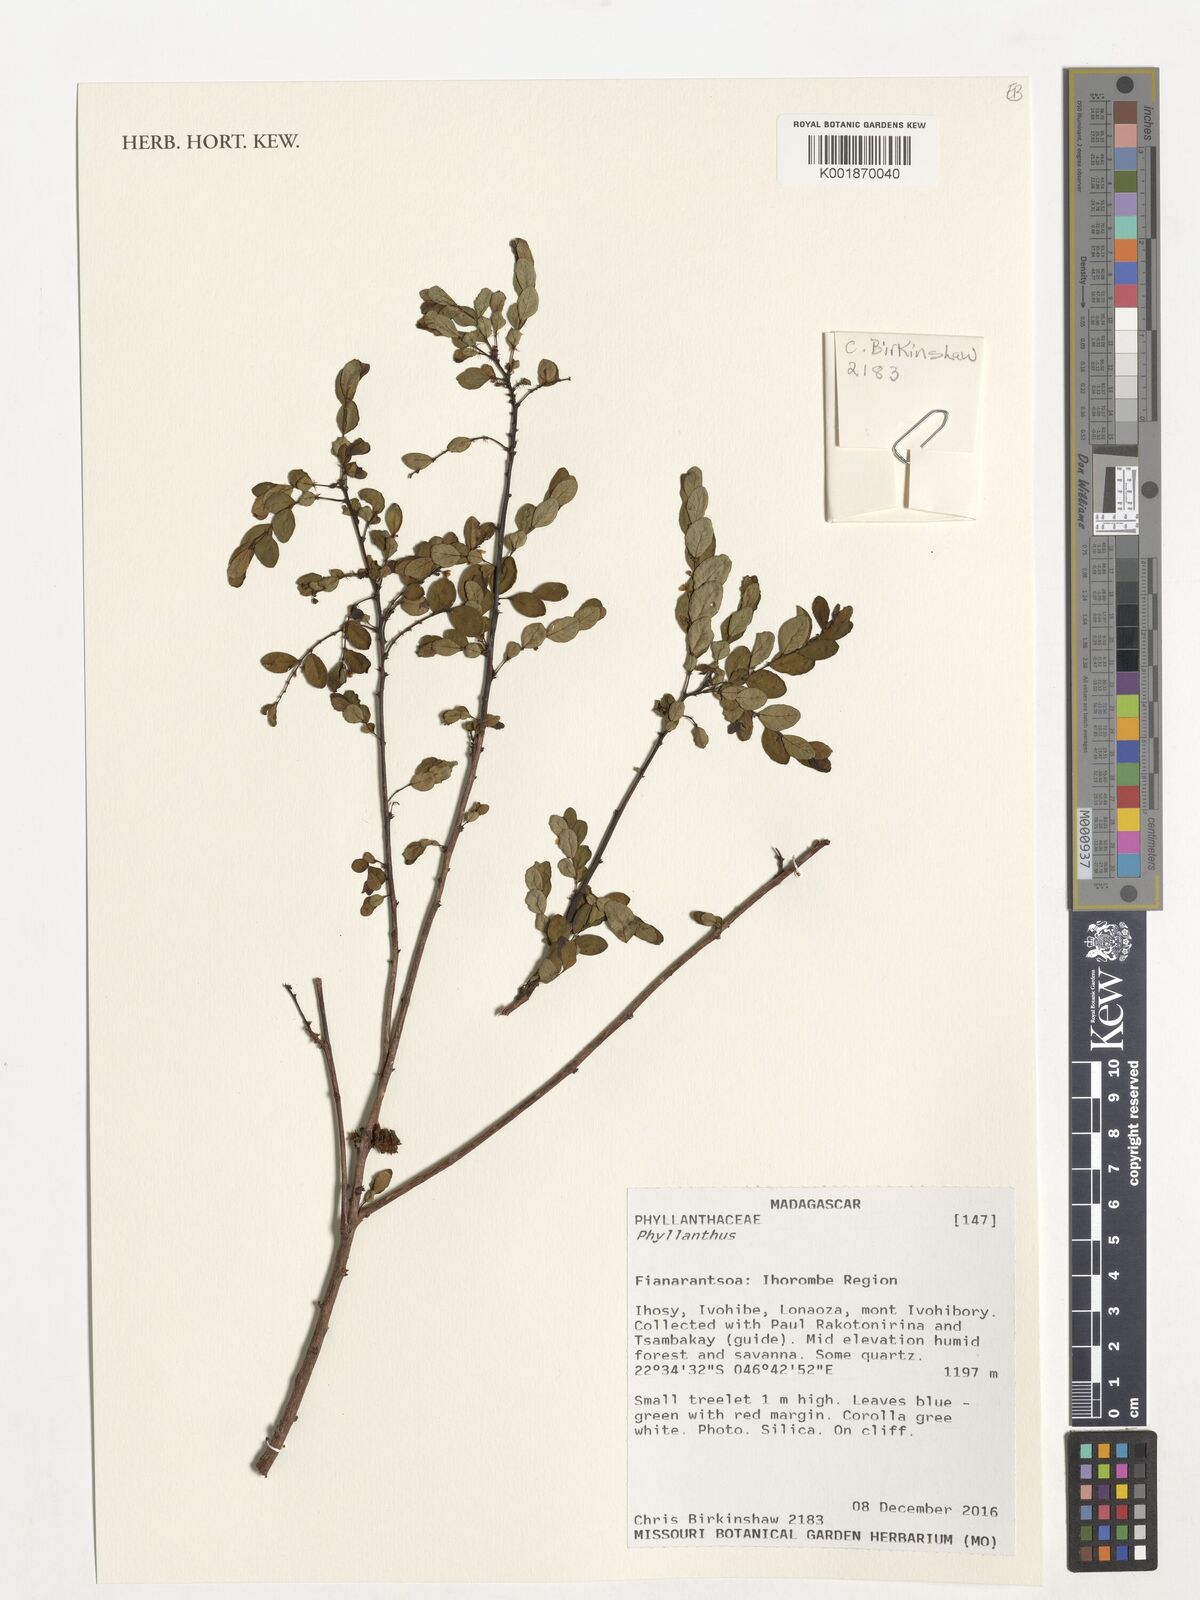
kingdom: Plantae
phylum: Tracheophyta
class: Magnoliopsida
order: Malpighiales
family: Phyllanthaceae
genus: Phyllanthus
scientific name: Phyllanthus
